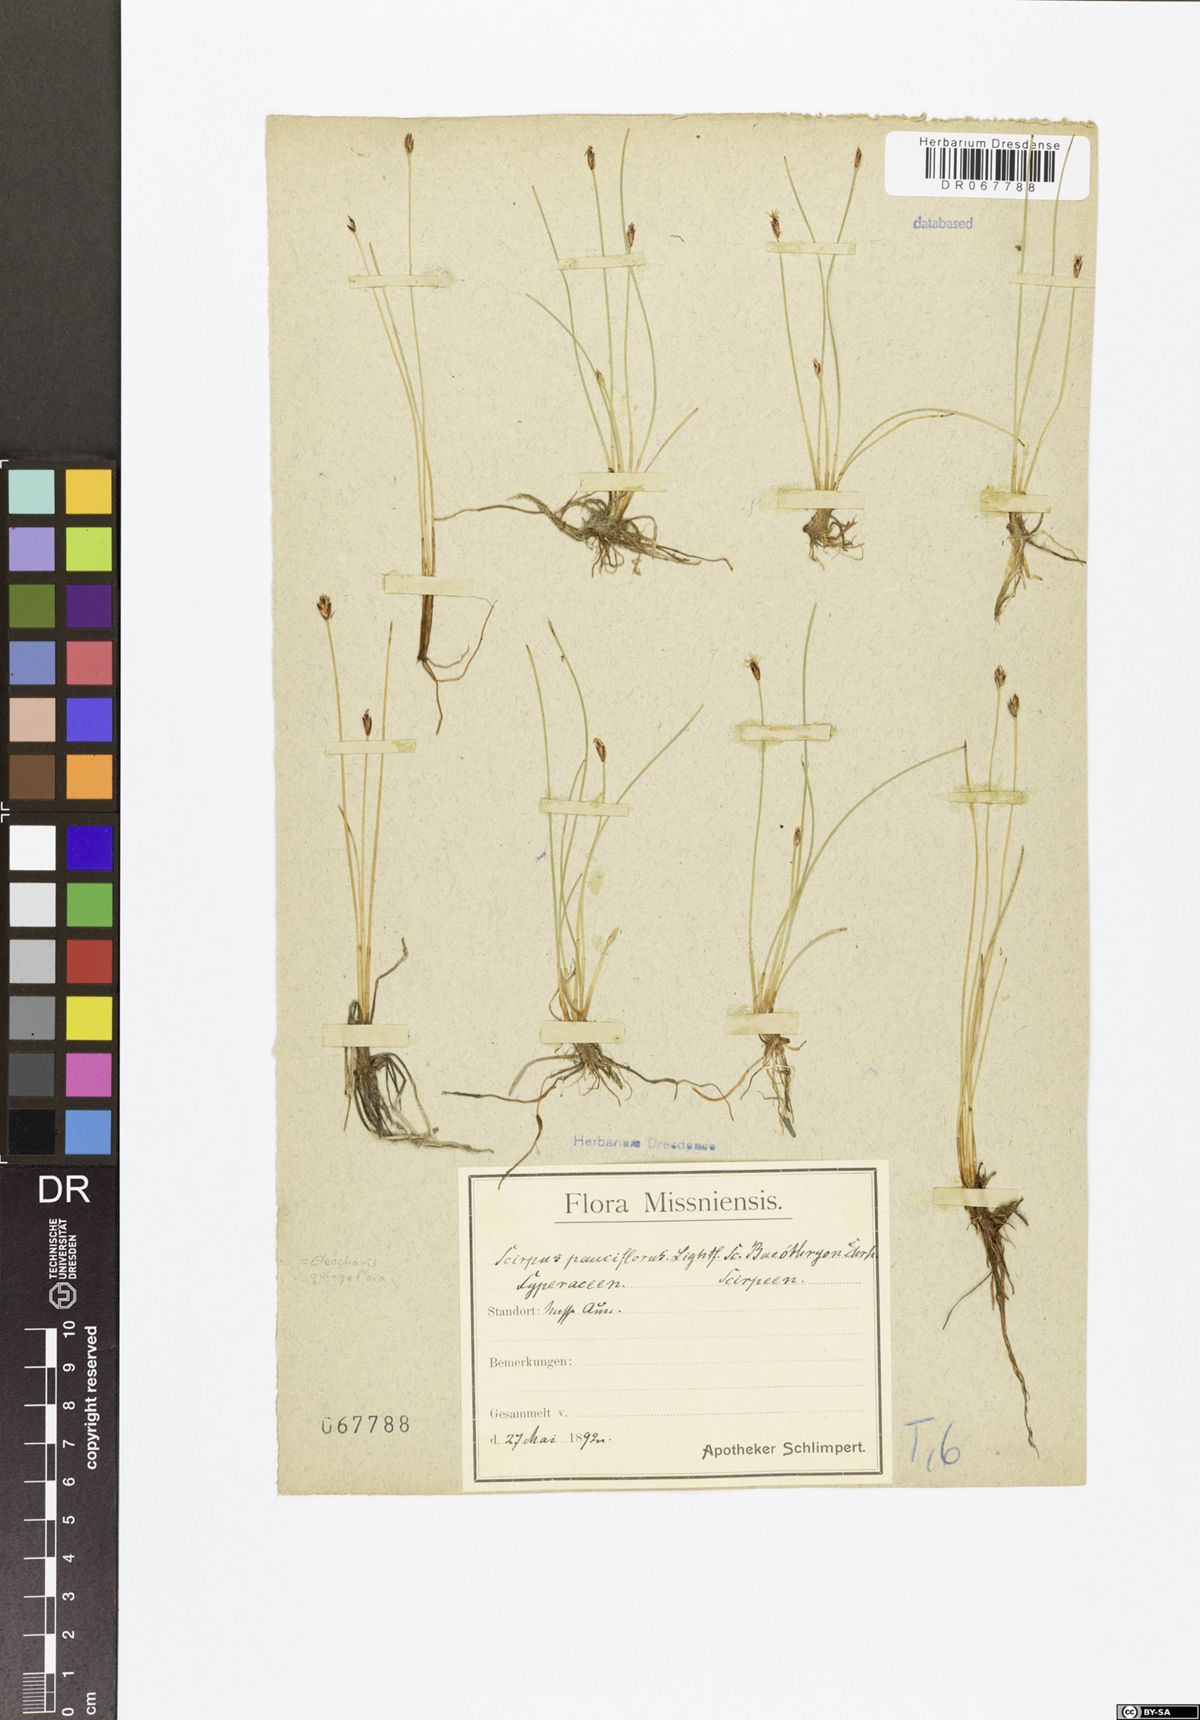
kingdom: Plantae
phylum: Tracheophyta
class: Liliopsida
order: Poales
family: Cyperaceae
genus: Eleocharis
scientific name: Eleocharis quinqueflora
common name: Few-flowered spike-rush
